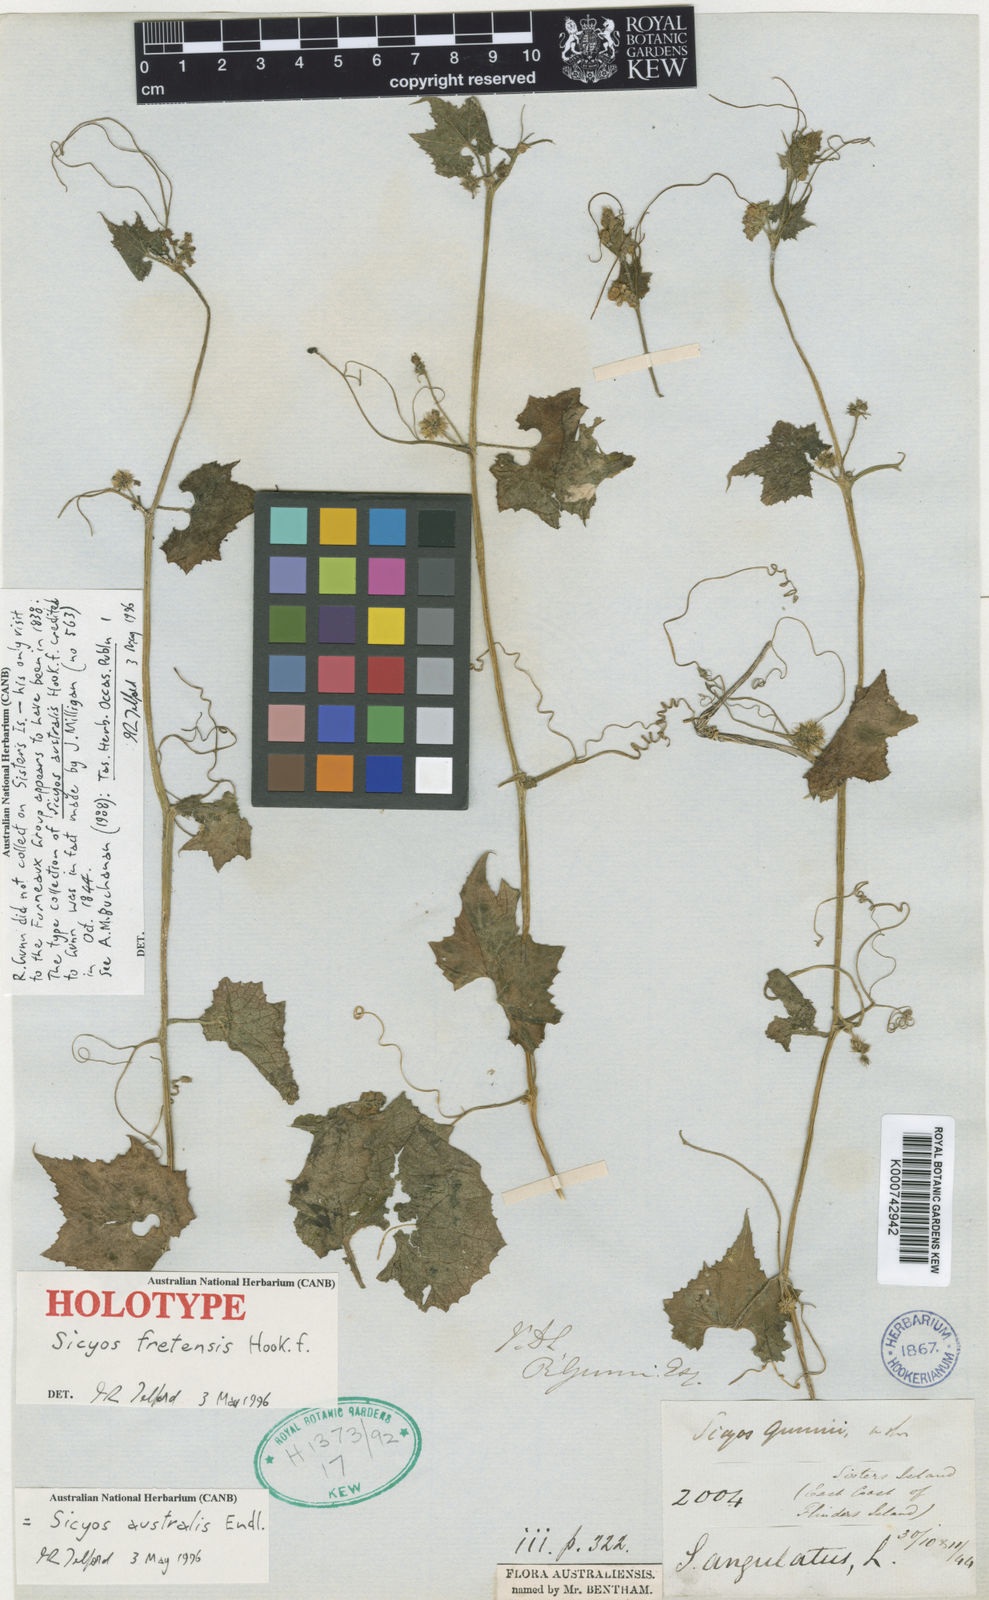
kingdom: Plantae
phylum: Tracheophyta
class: Magnoliopsida
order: Cucurbitales
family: Cucurbitaceae
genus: Sicyos
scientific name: Sicyos australis
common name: Angle-cucumber
